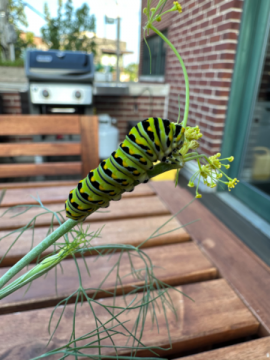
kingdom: Animalia
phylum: Arthropoda
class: Insecta
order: Lepidoptera
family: Papilionidae
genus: Papilio
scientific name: Papilio polyxenes
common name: Black Swallowtail
